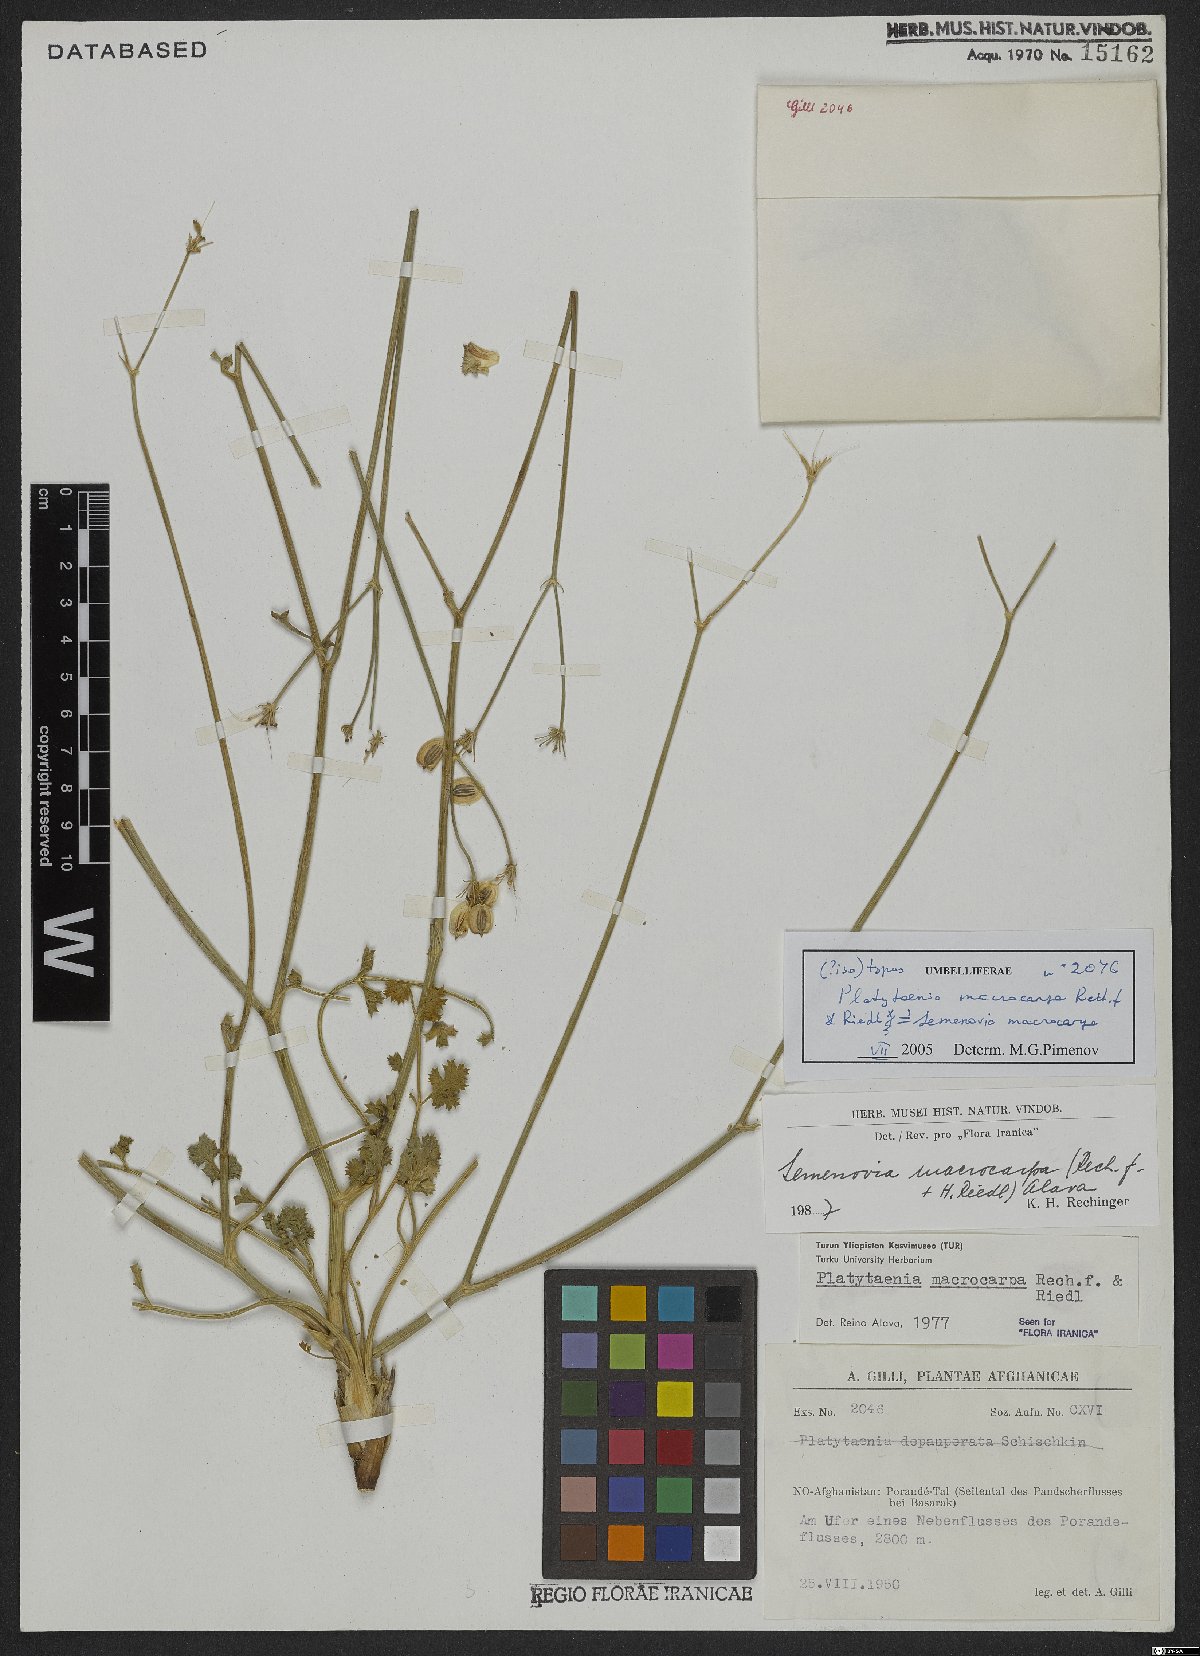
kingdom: Plantae
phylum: Tracheophyta
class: Magnoliopsida
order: Apiales
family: Apiaceae
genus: Semenovia
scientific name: Semenovia macrocarpa
